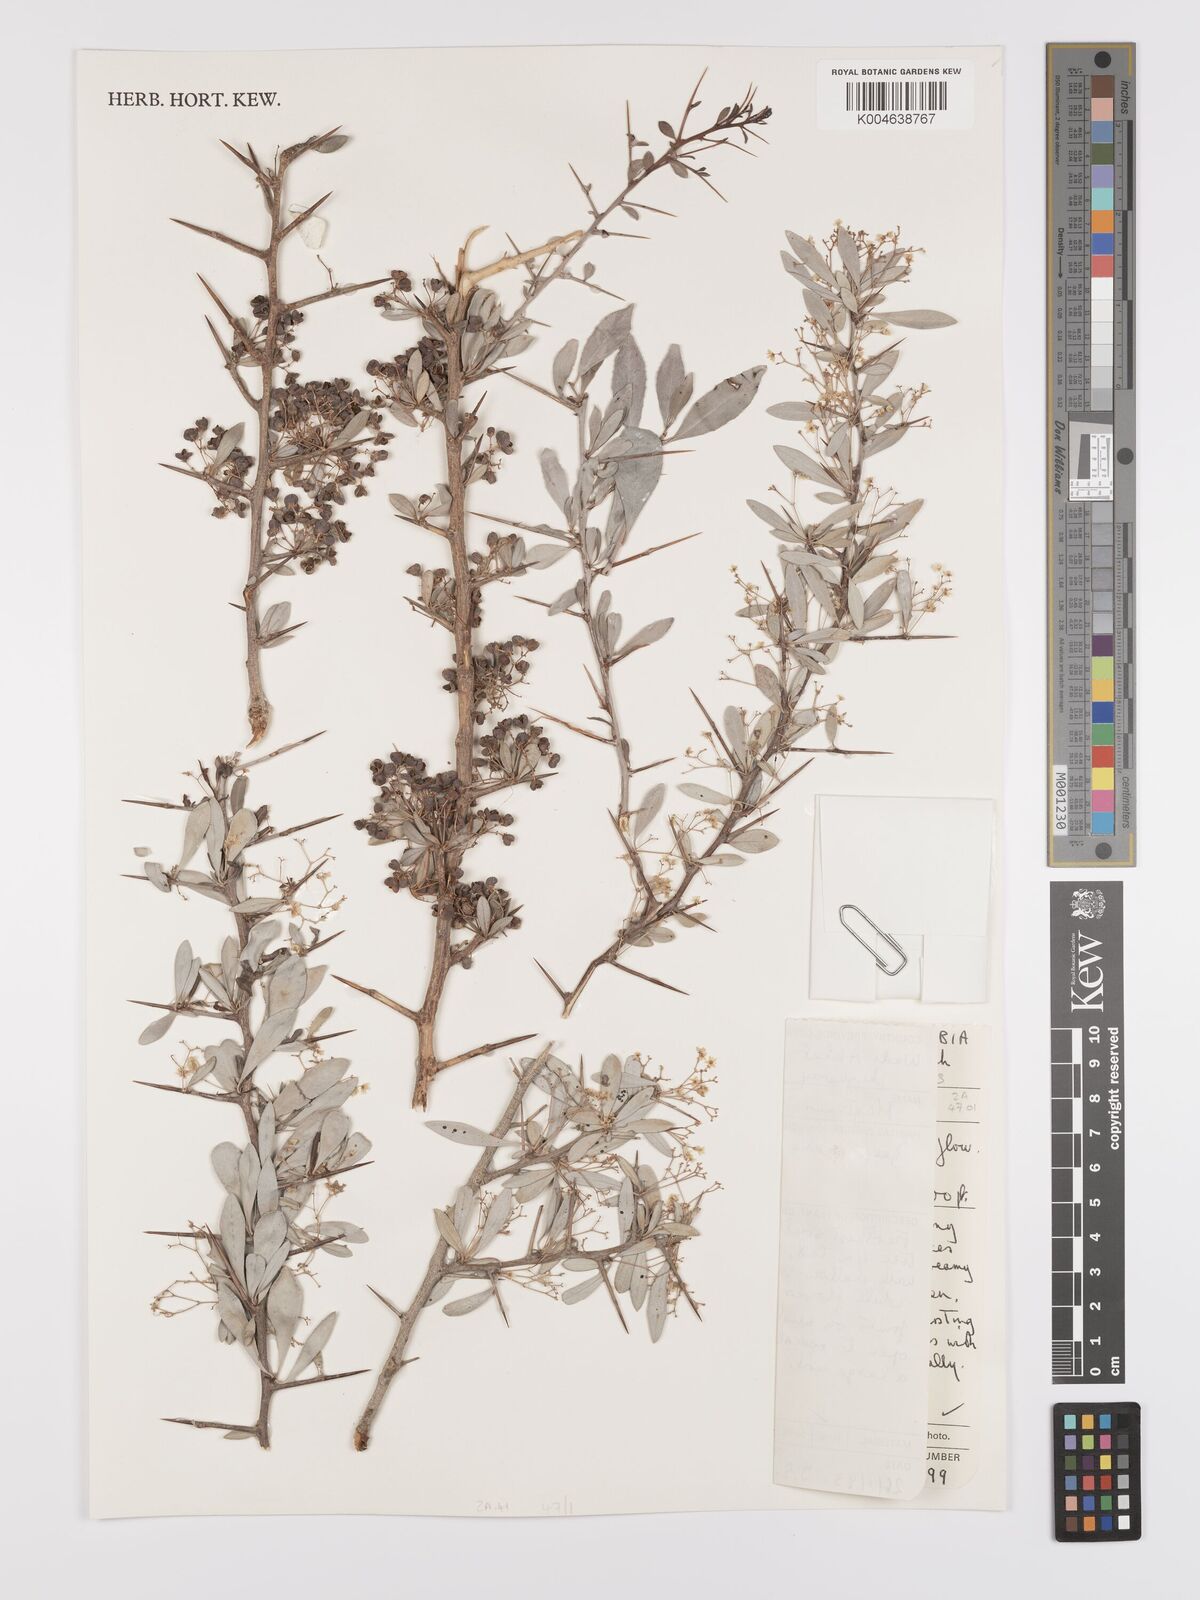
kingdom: Plantae
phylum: Tracheophyta
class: Magnoliopsida
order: Celastrales
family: Celastraceae
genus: Gymnosporia
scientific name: Gymnosporia senegalensis
